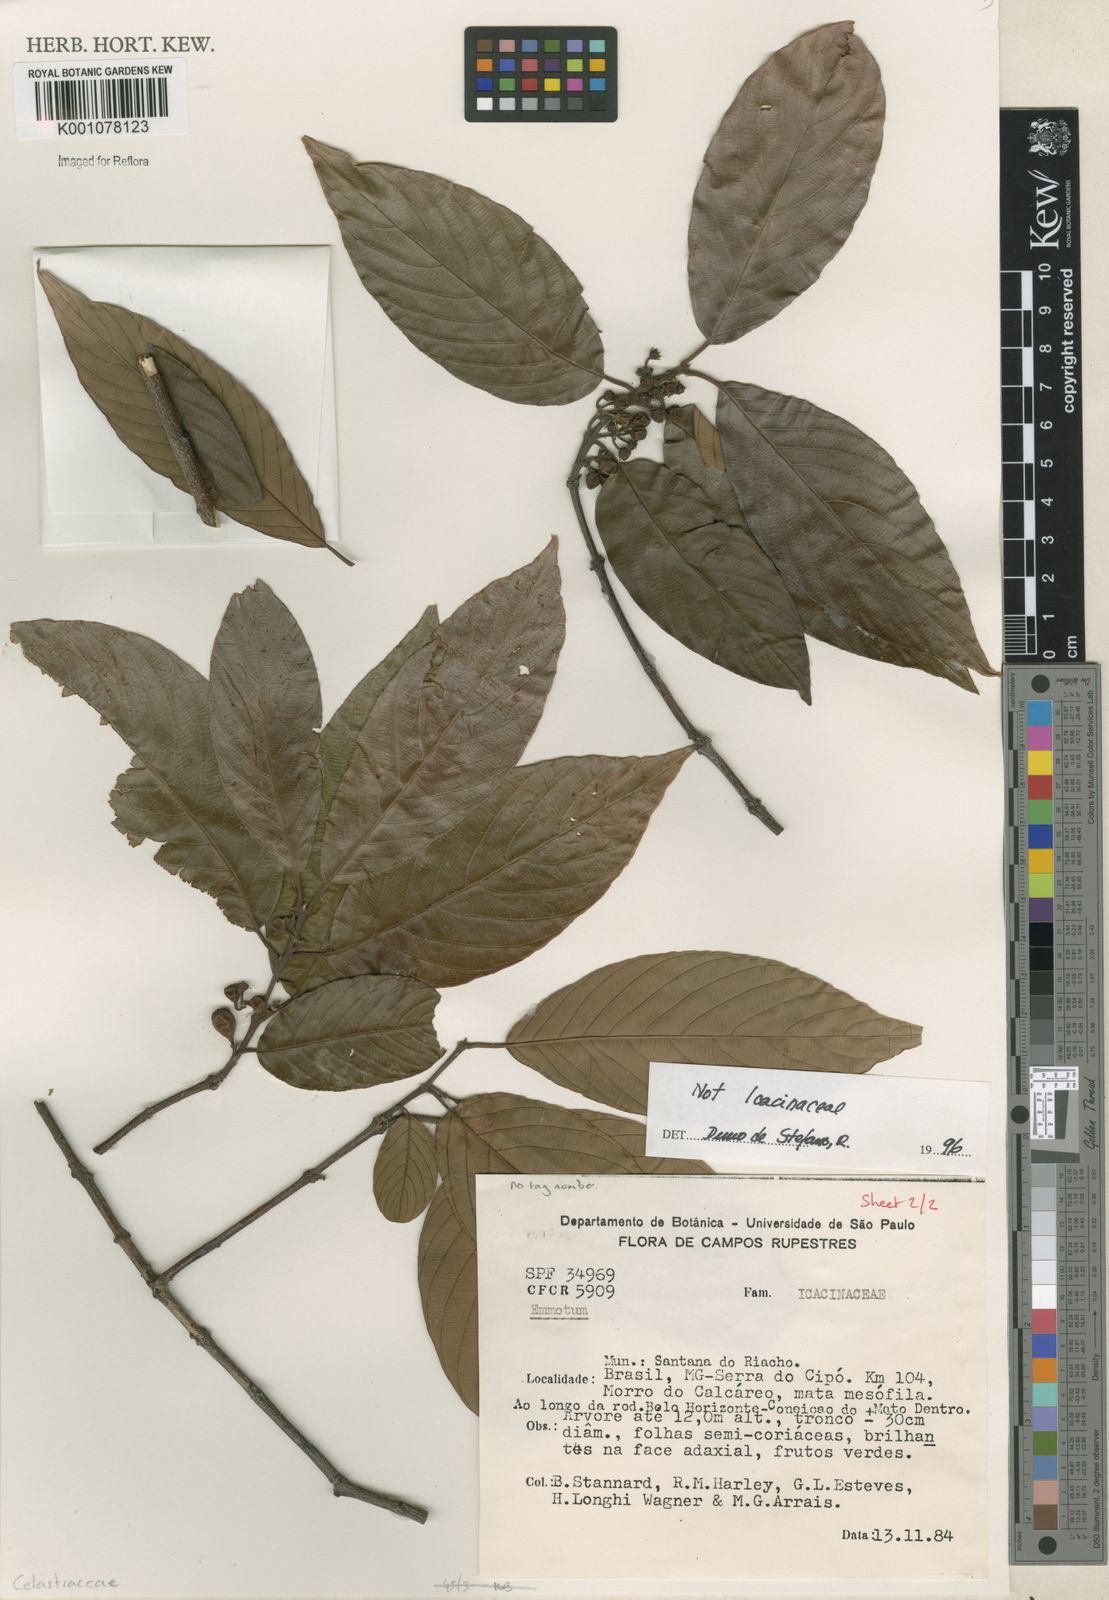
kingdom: Plantae
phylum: Tracheophyta
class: Magnoliopsida
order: Rosales
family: Rhamnaceae
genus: Rhamnidium
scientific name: Rhamnidium
